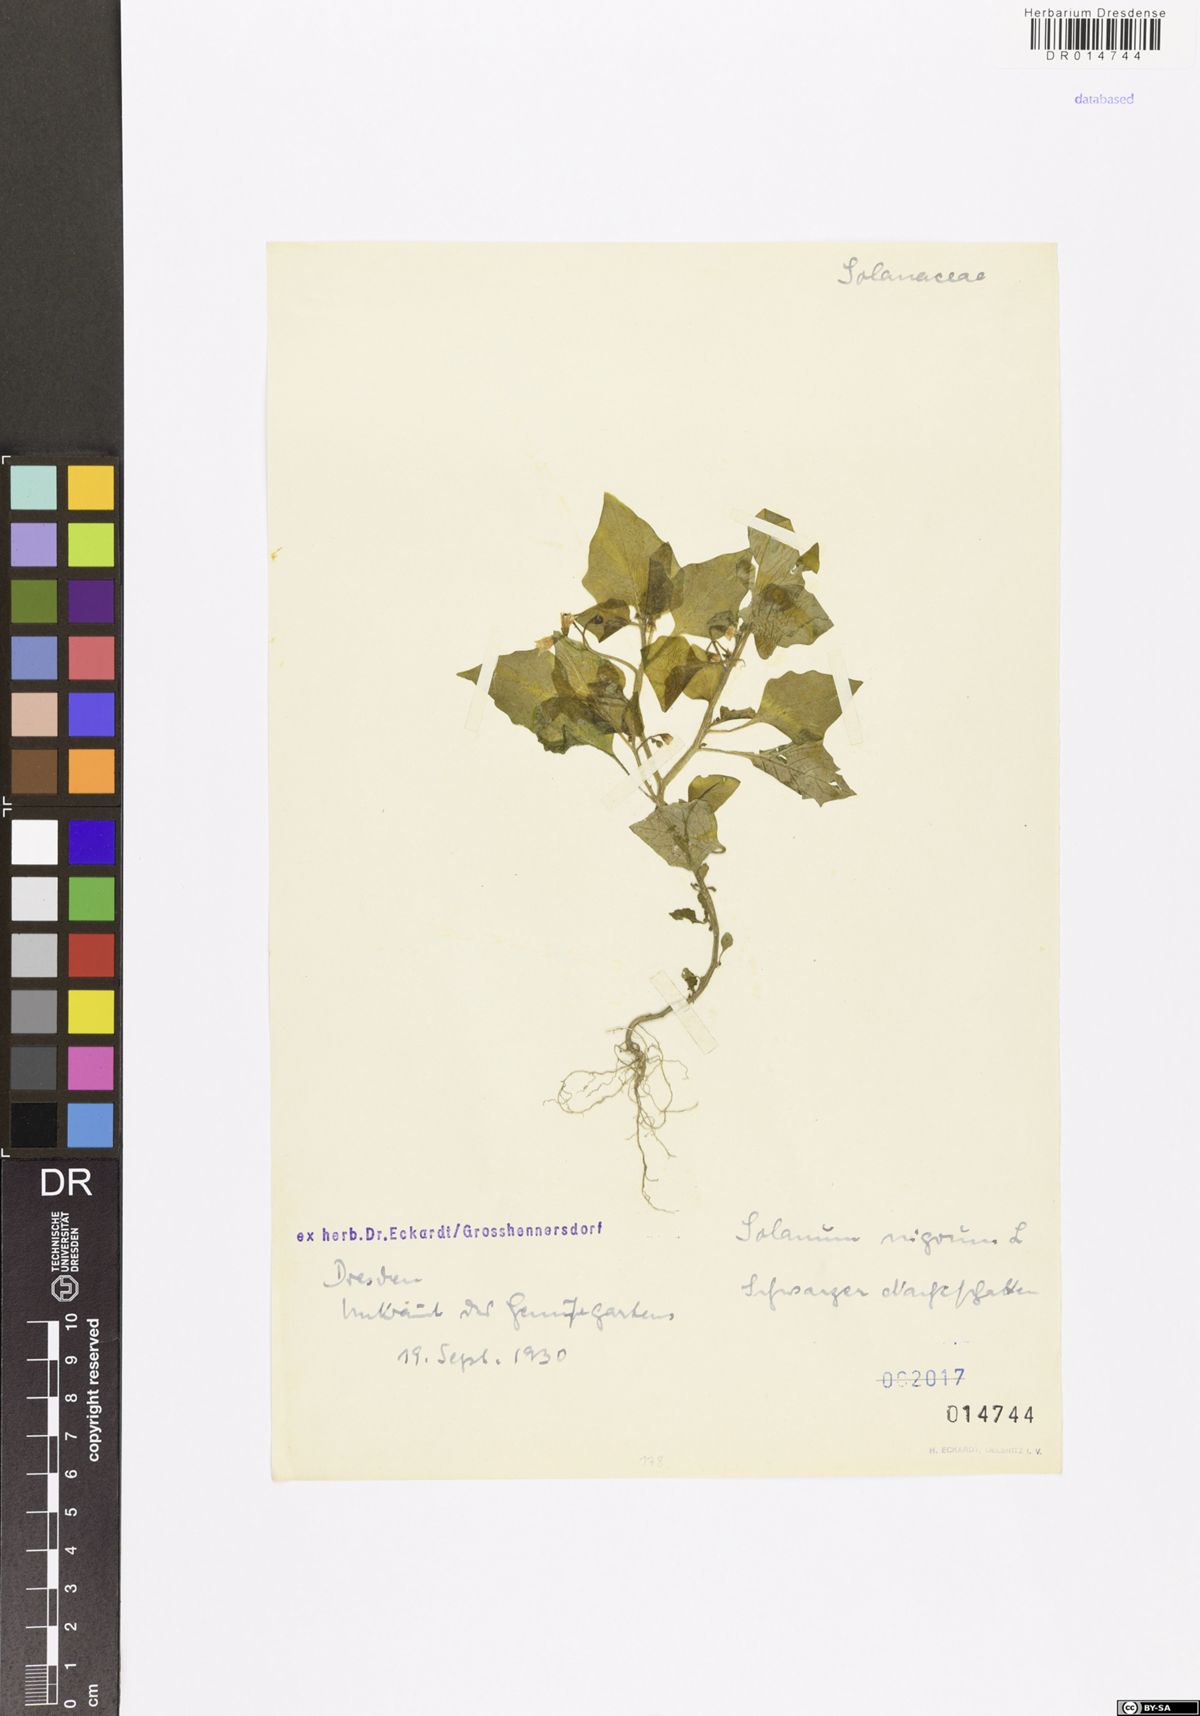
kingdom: Plantae
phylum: Tracheophyta
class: Magnoliopsida
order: Solanales
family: Solanaceae
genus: Solanum
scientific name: Solanum nigrum
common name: Black nightshade
